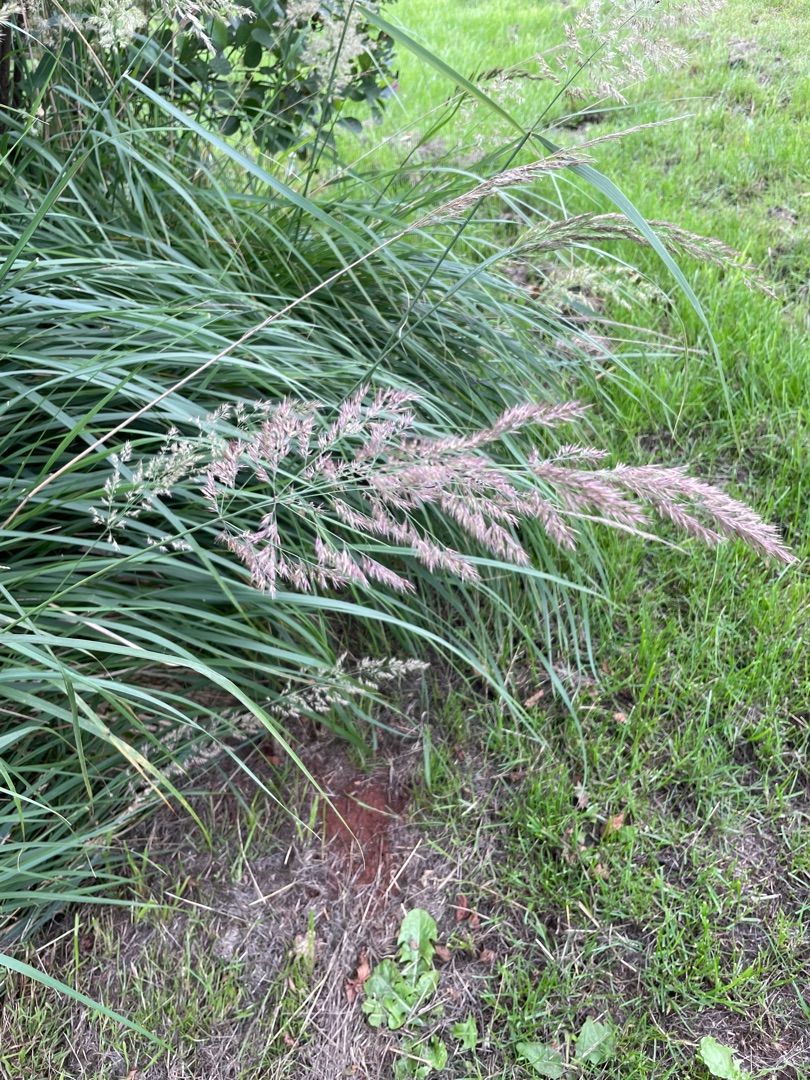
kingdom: Plantae
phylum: Tracheophyta
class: Liliopsida
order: Poales
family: Poaceae
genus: Calamagrostis
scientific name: Calamagrostis epigejos
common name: Bjerg-rørhvene
